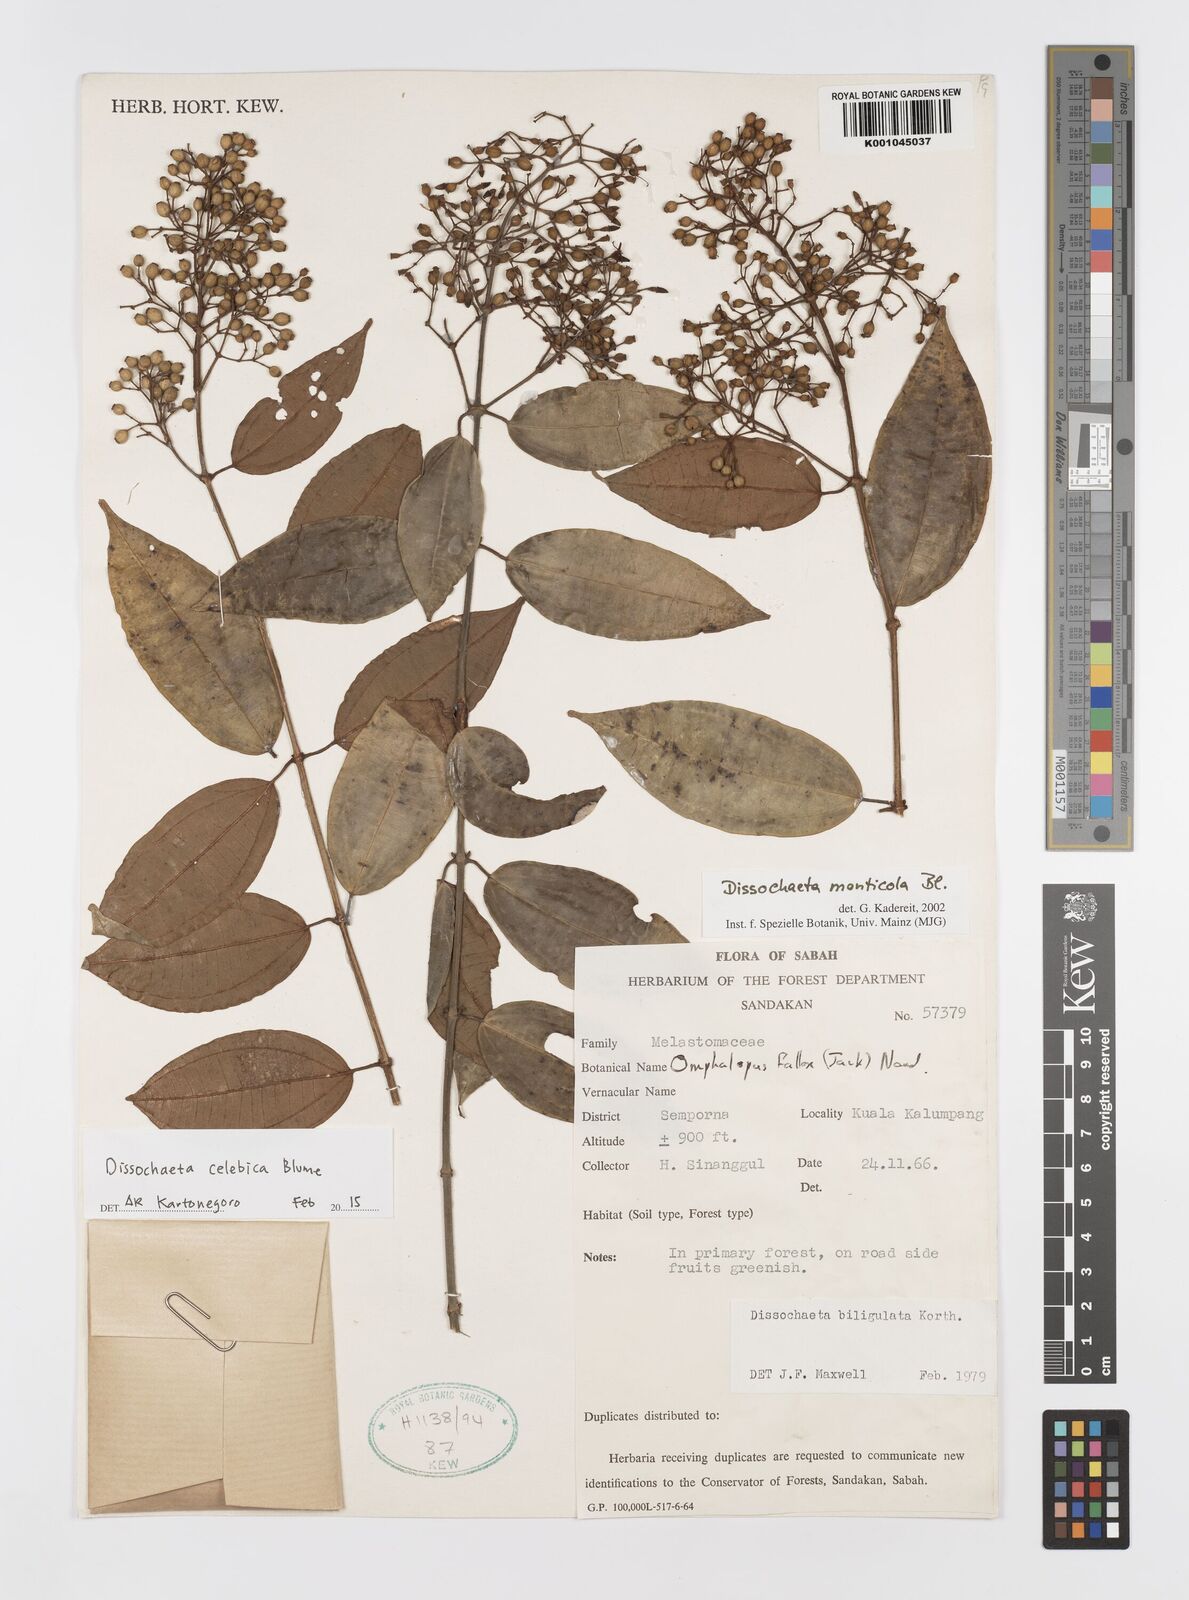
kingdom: Plantae
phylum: Tracheophyta
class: Magnoliopsida
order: Myrtales
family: Melastomataceae
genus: Dissochaeta
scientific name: Dissochaeta celebica
